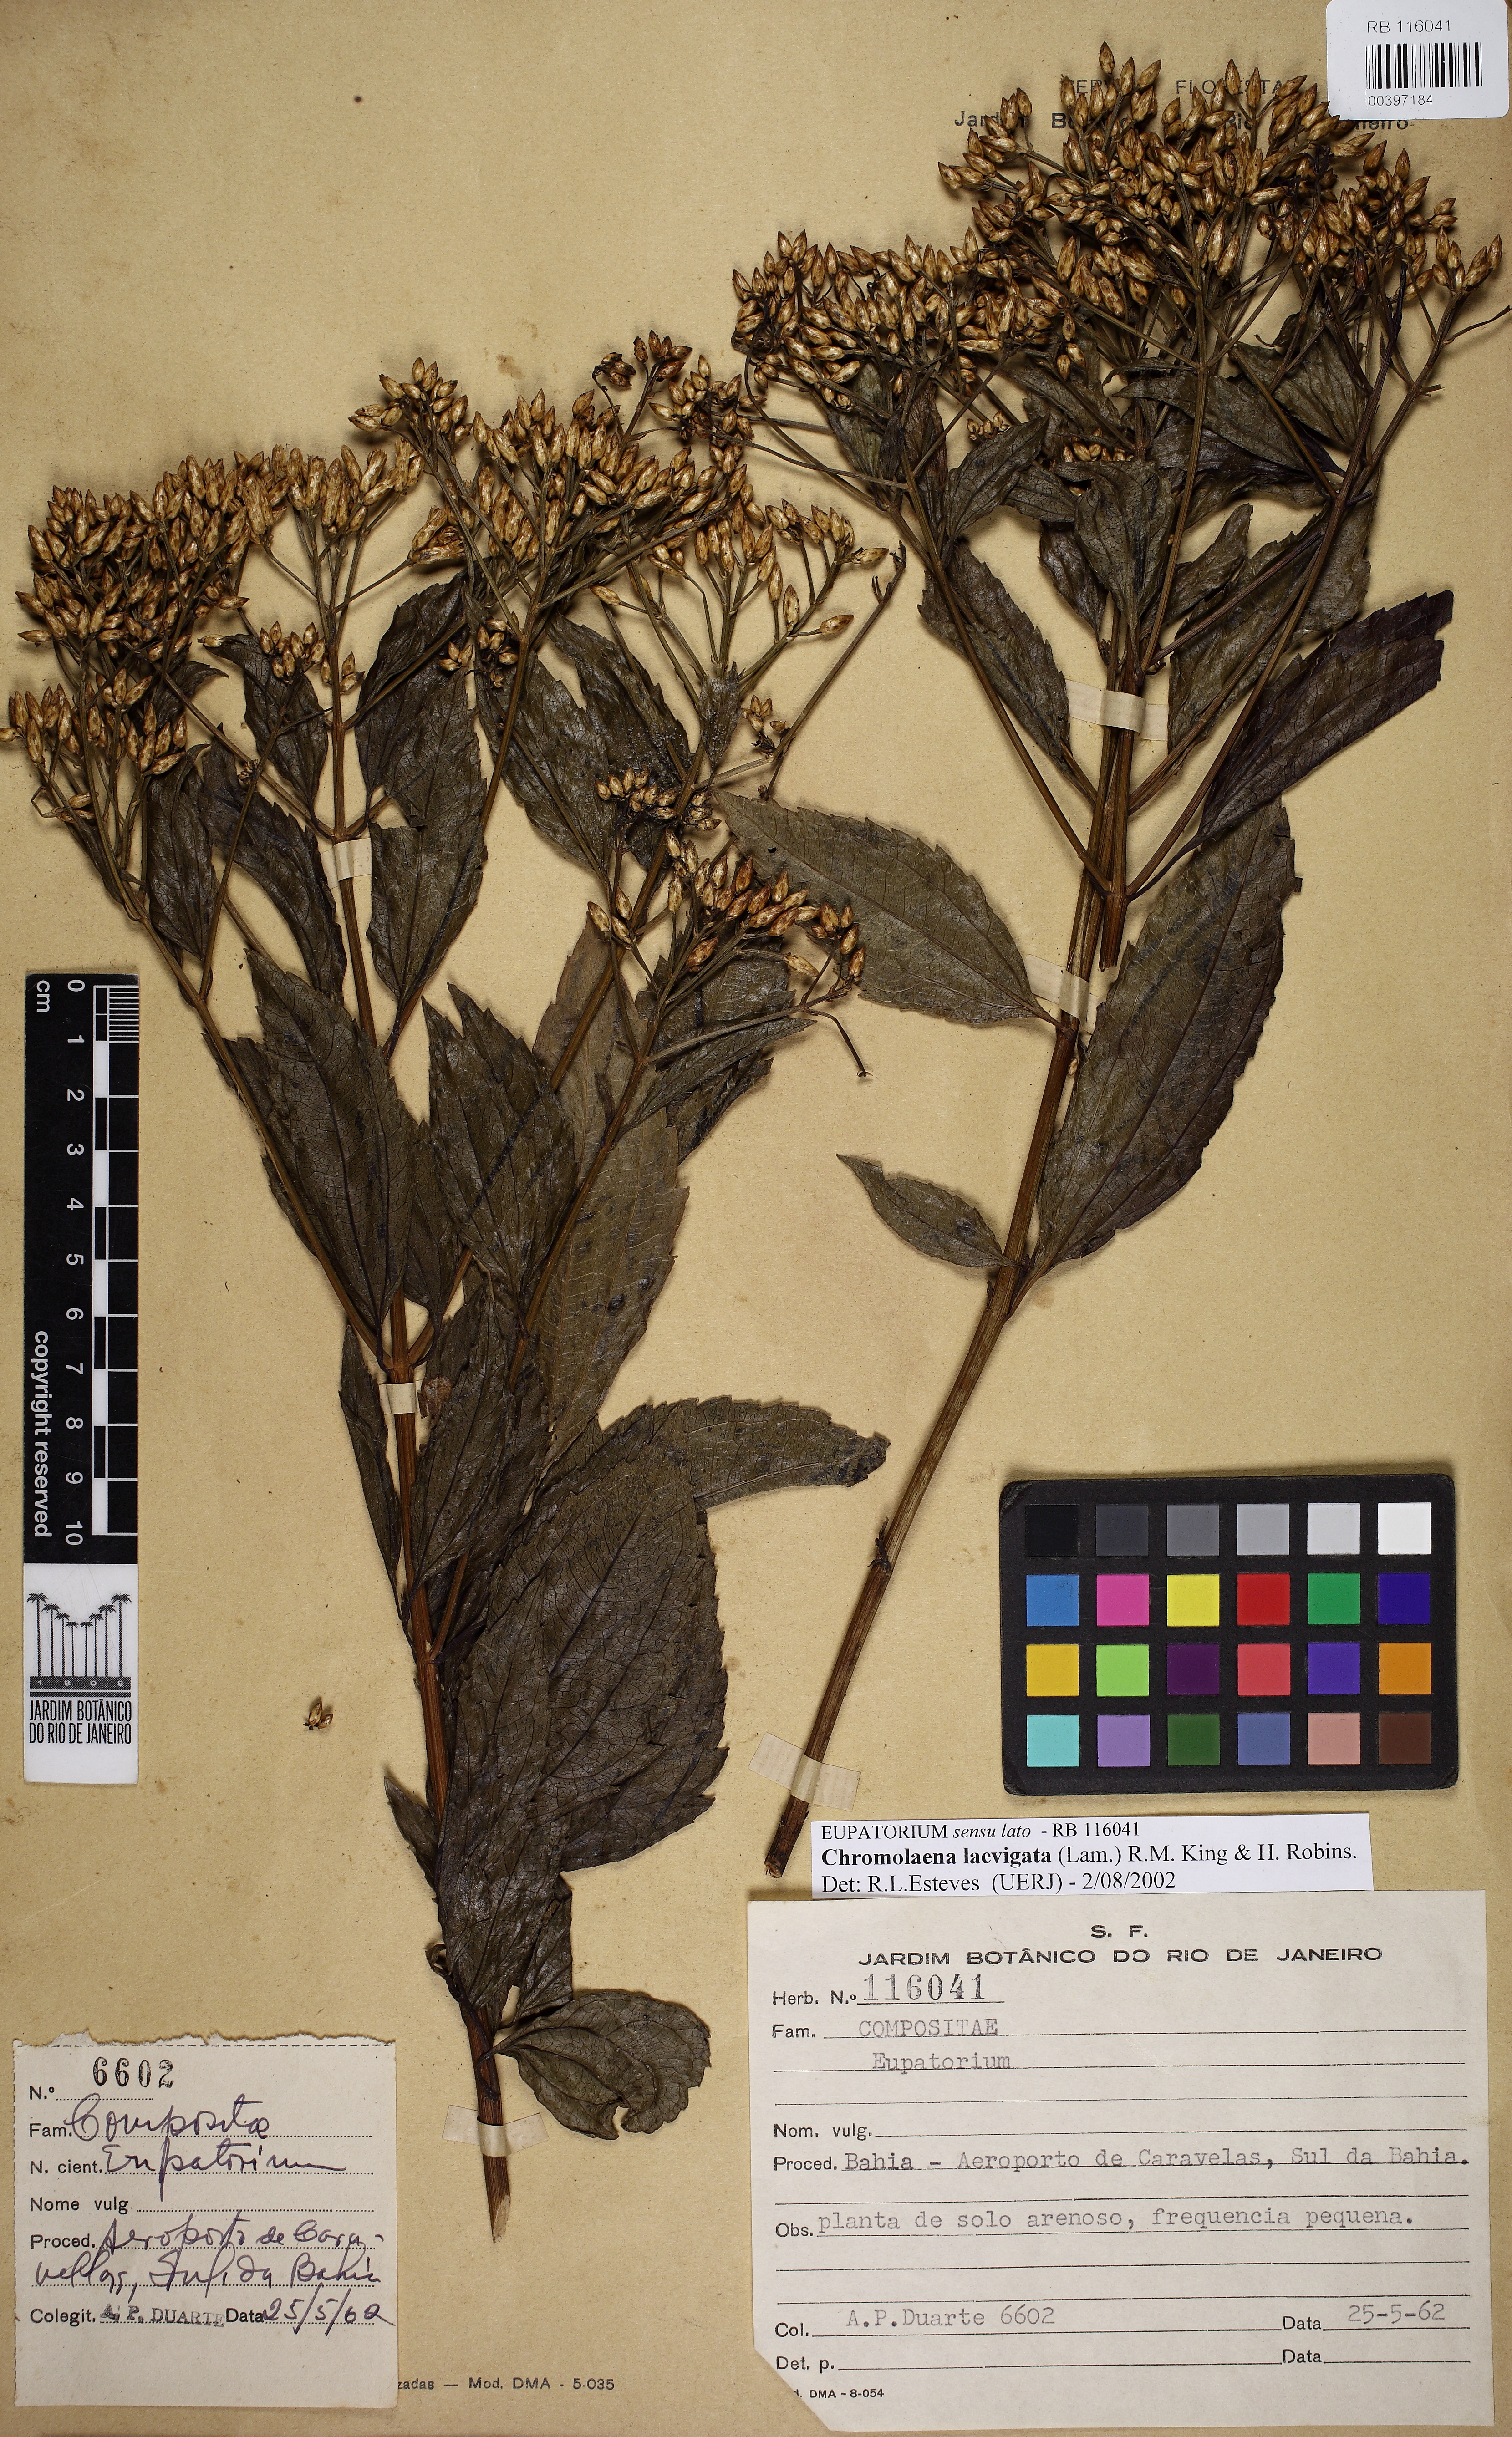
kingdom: Plantae
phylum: Tracheophyta
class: Magnoliopsida
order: Asterales
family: Asteraceae
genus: Chromolaena
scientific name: Chromolaena laevigata
